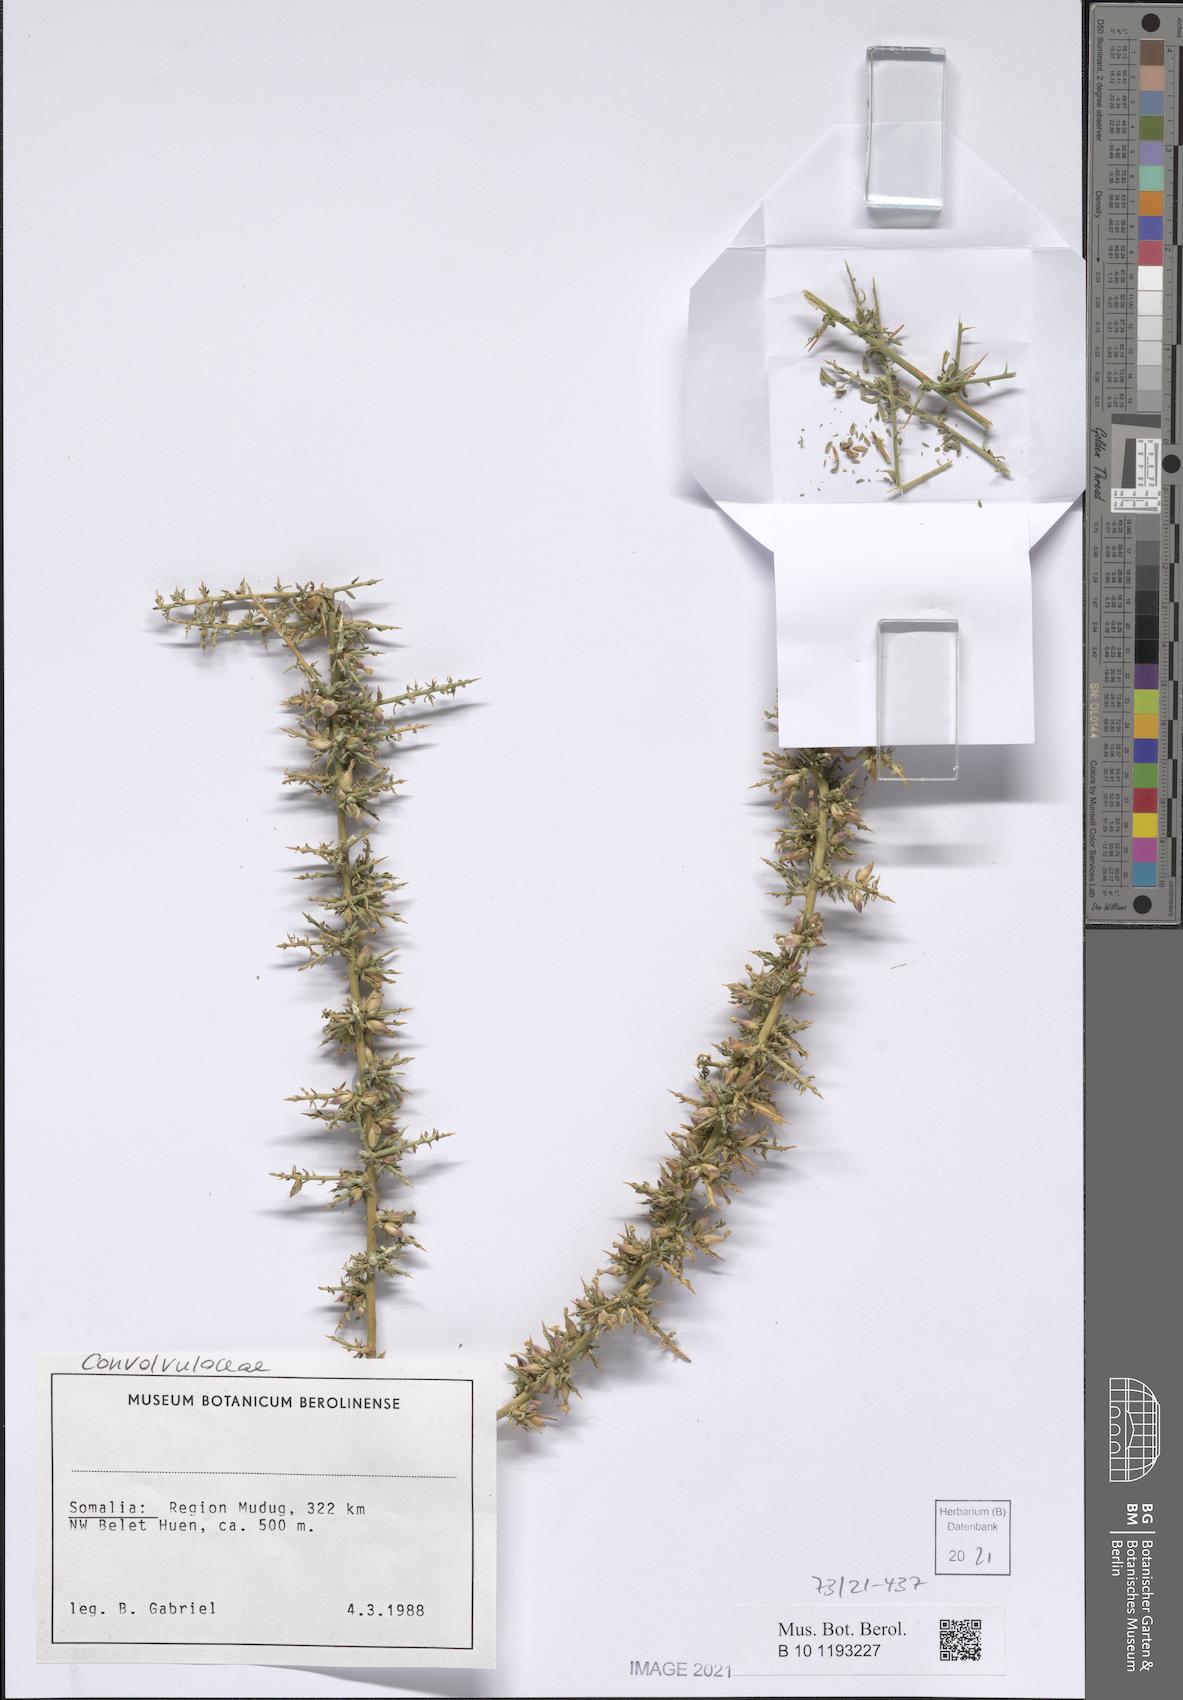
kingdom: Plantae
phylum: Tracheophyta
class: Magnoliopsida
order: Solanales
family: Convolvulaceae
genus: Convolvulus
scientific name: Convolvulus hystrix
